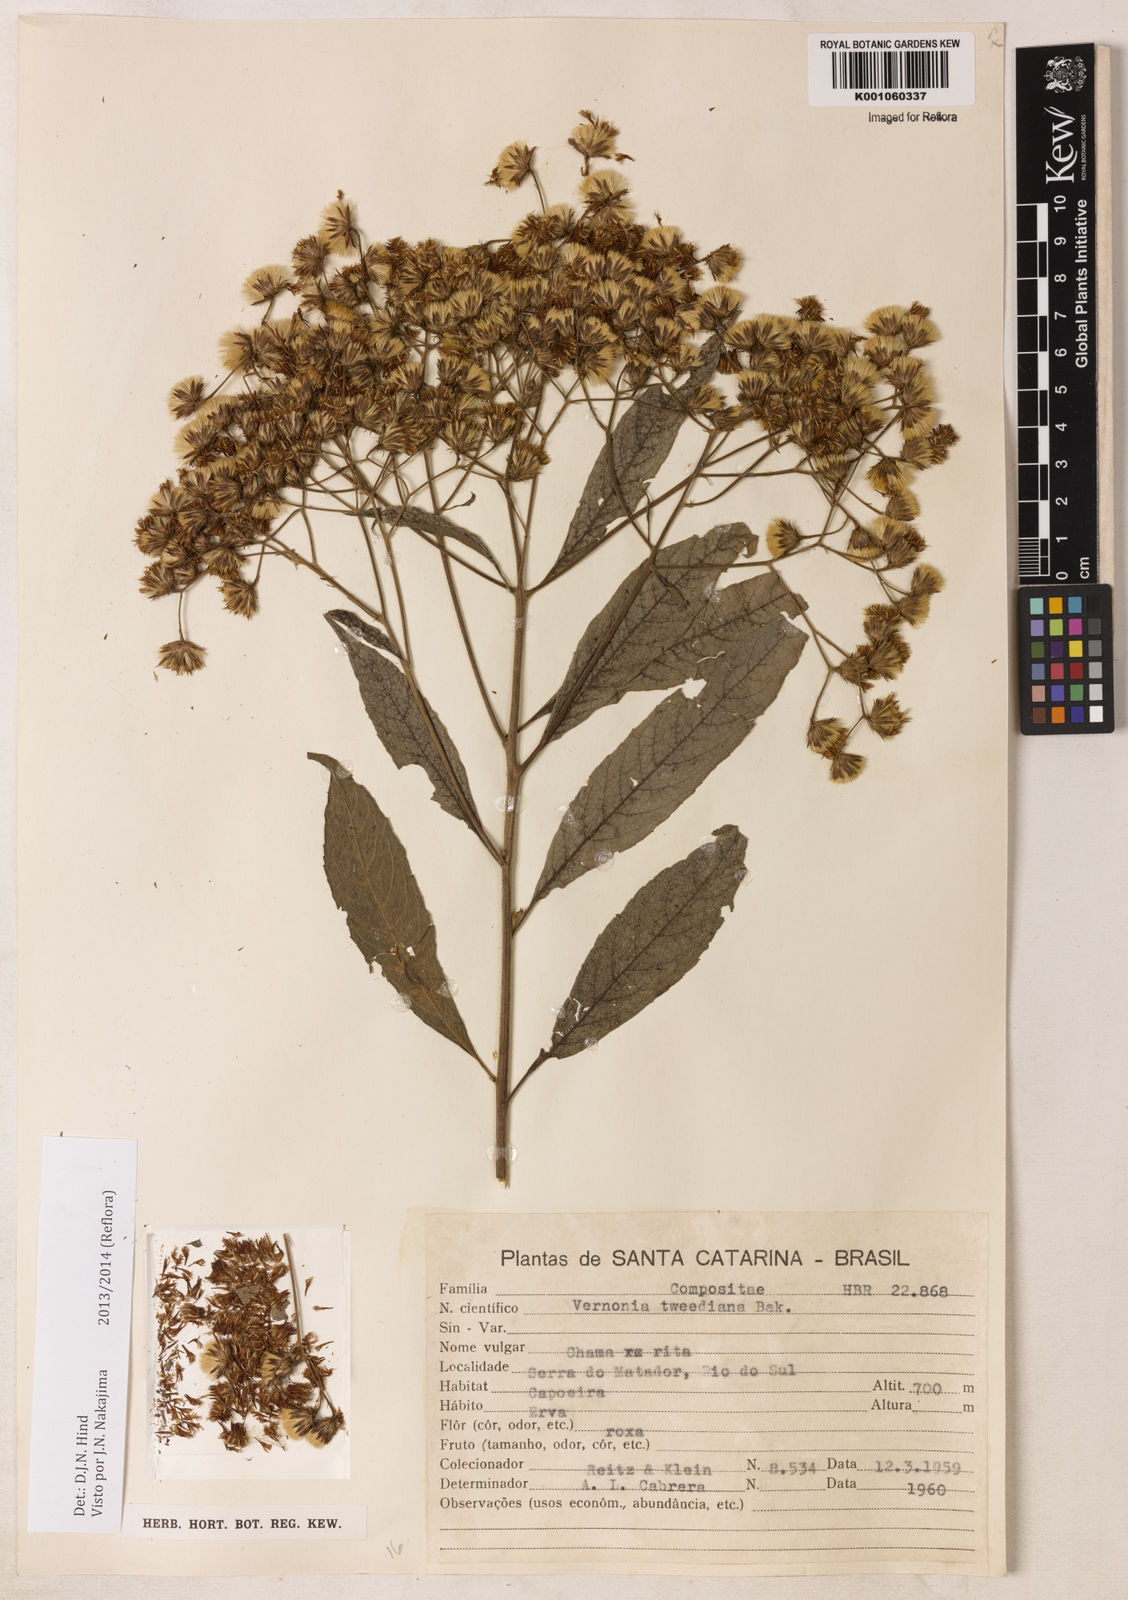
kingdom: Plantae
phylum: Tracheophyta
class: Magnoliopsida
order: Asterales
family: Asteraceae
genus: Vernonia
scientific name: Vernonia
